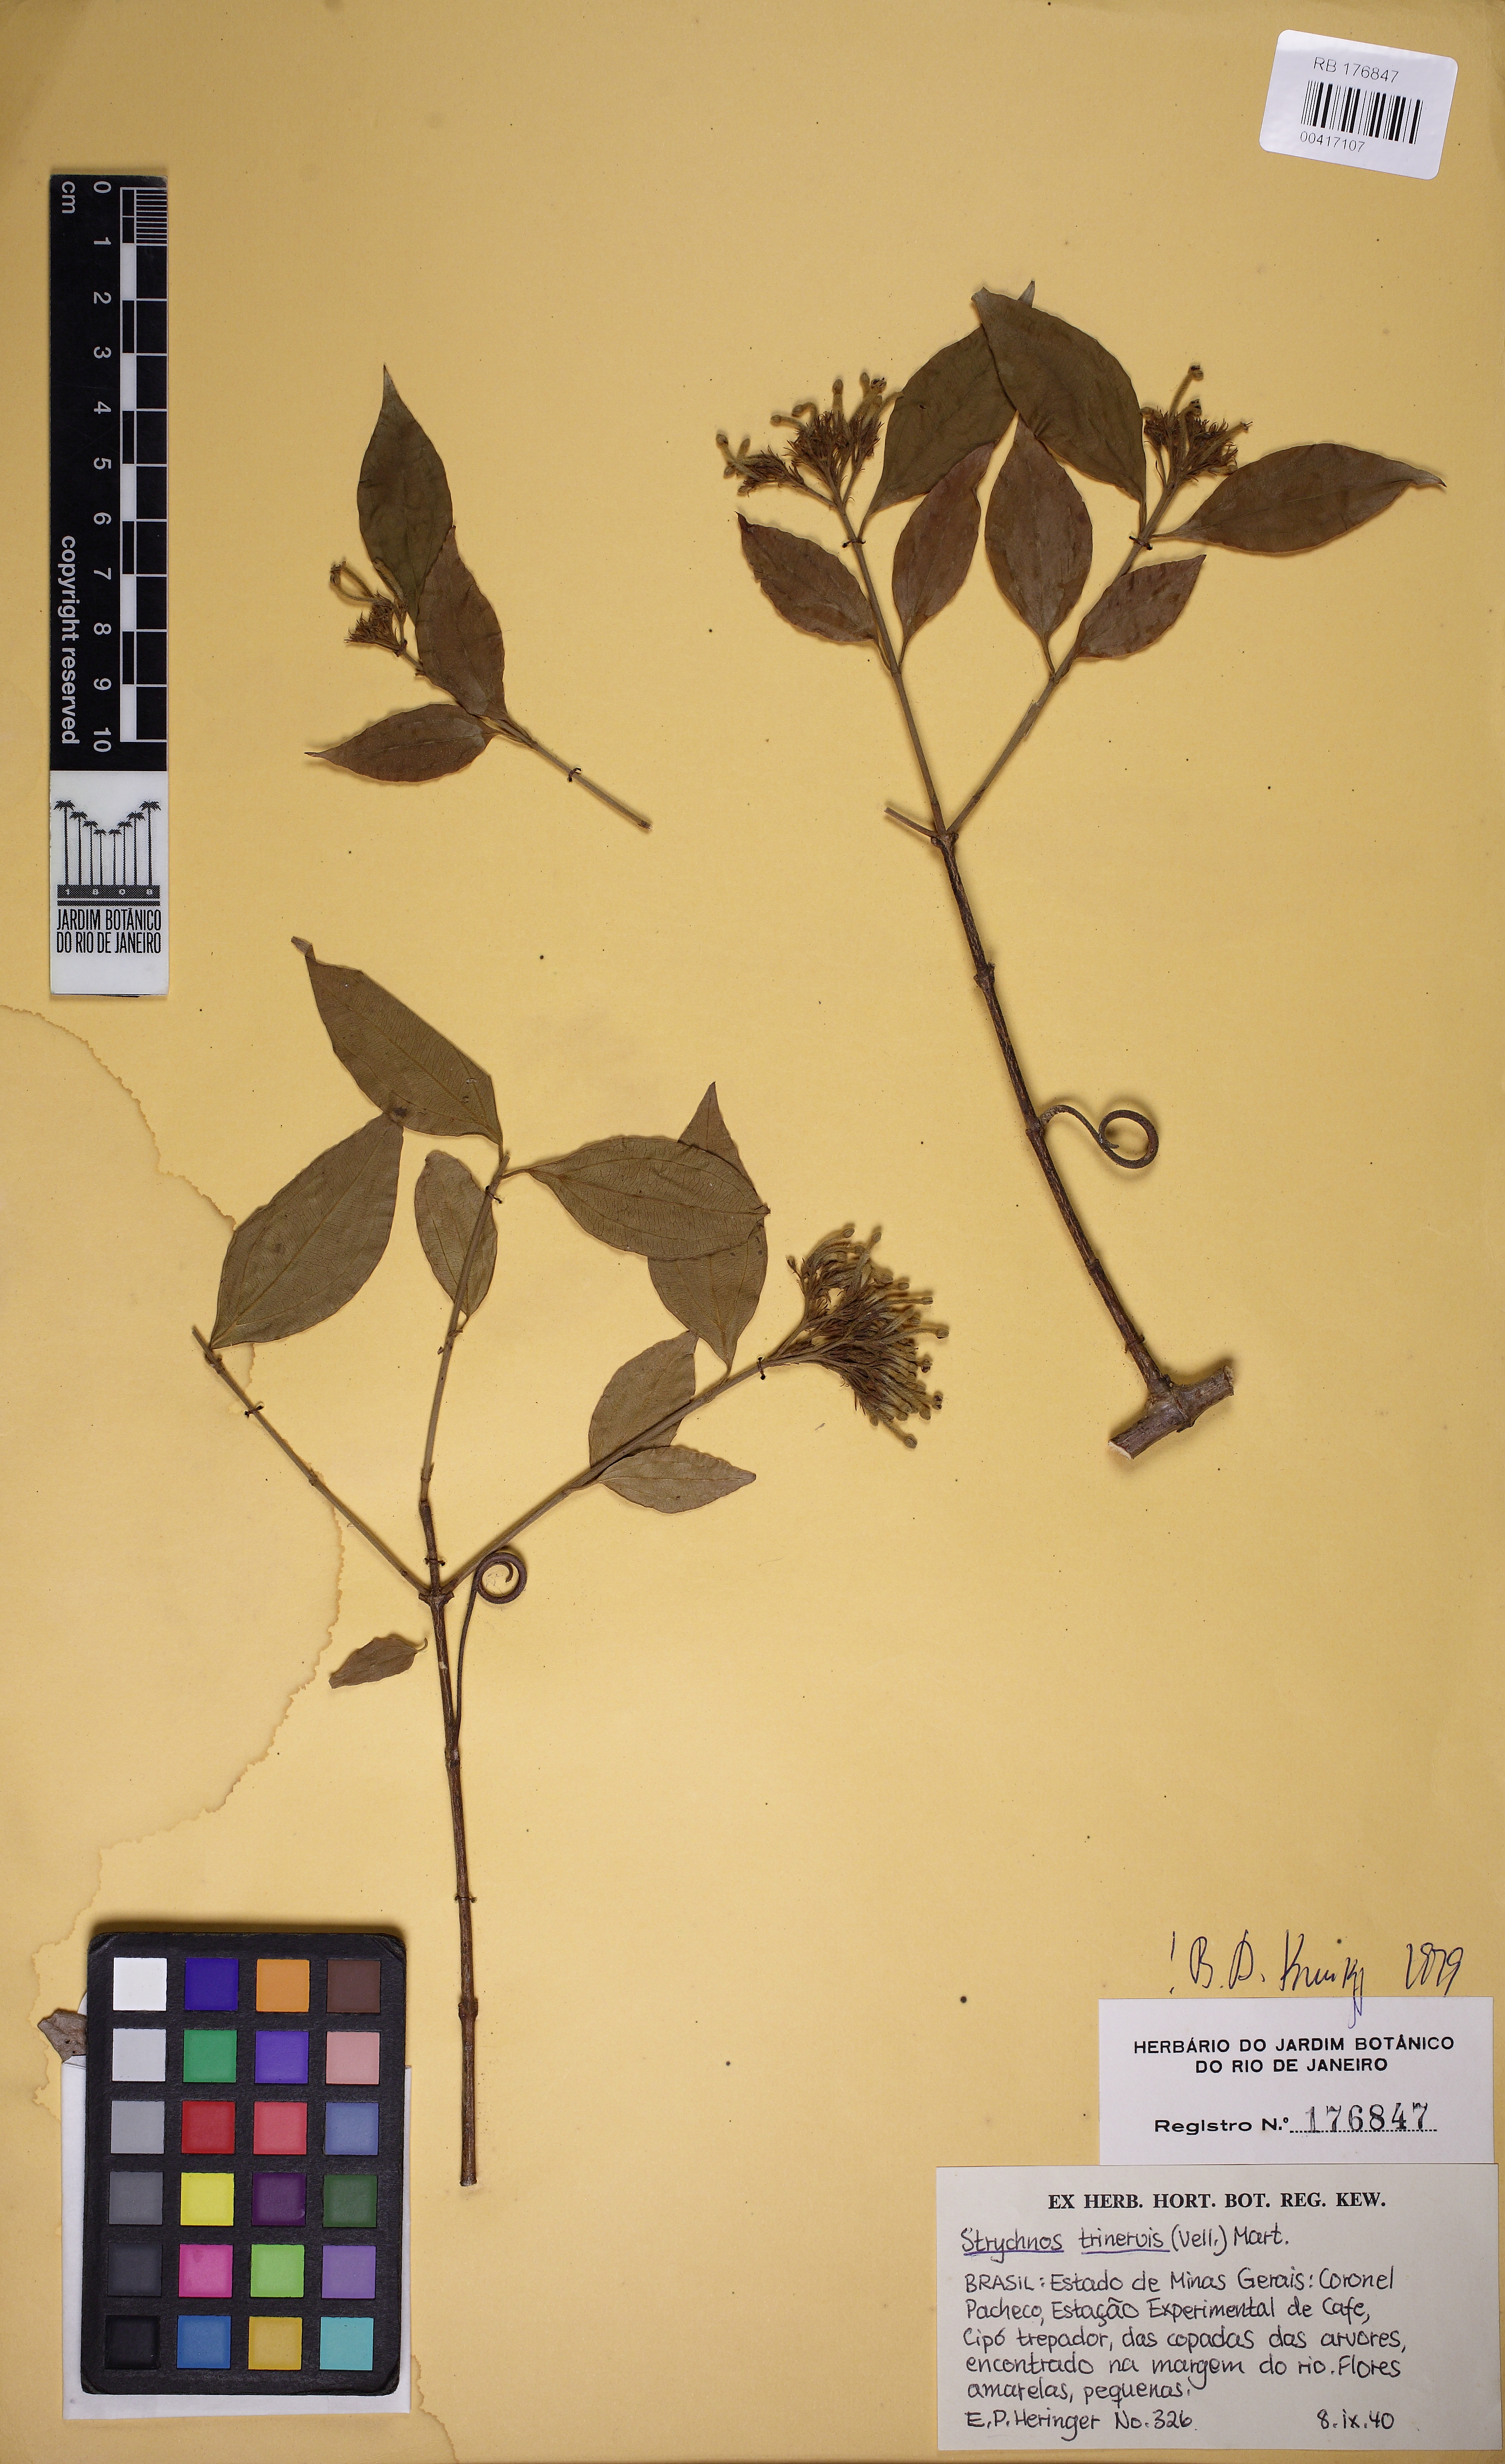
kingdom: Plantae
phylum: Tracheophyta
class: Magnoliopsida
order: Gentianales
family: Loganiaceae
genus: Strychnos
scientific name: Strychnos trinervis
